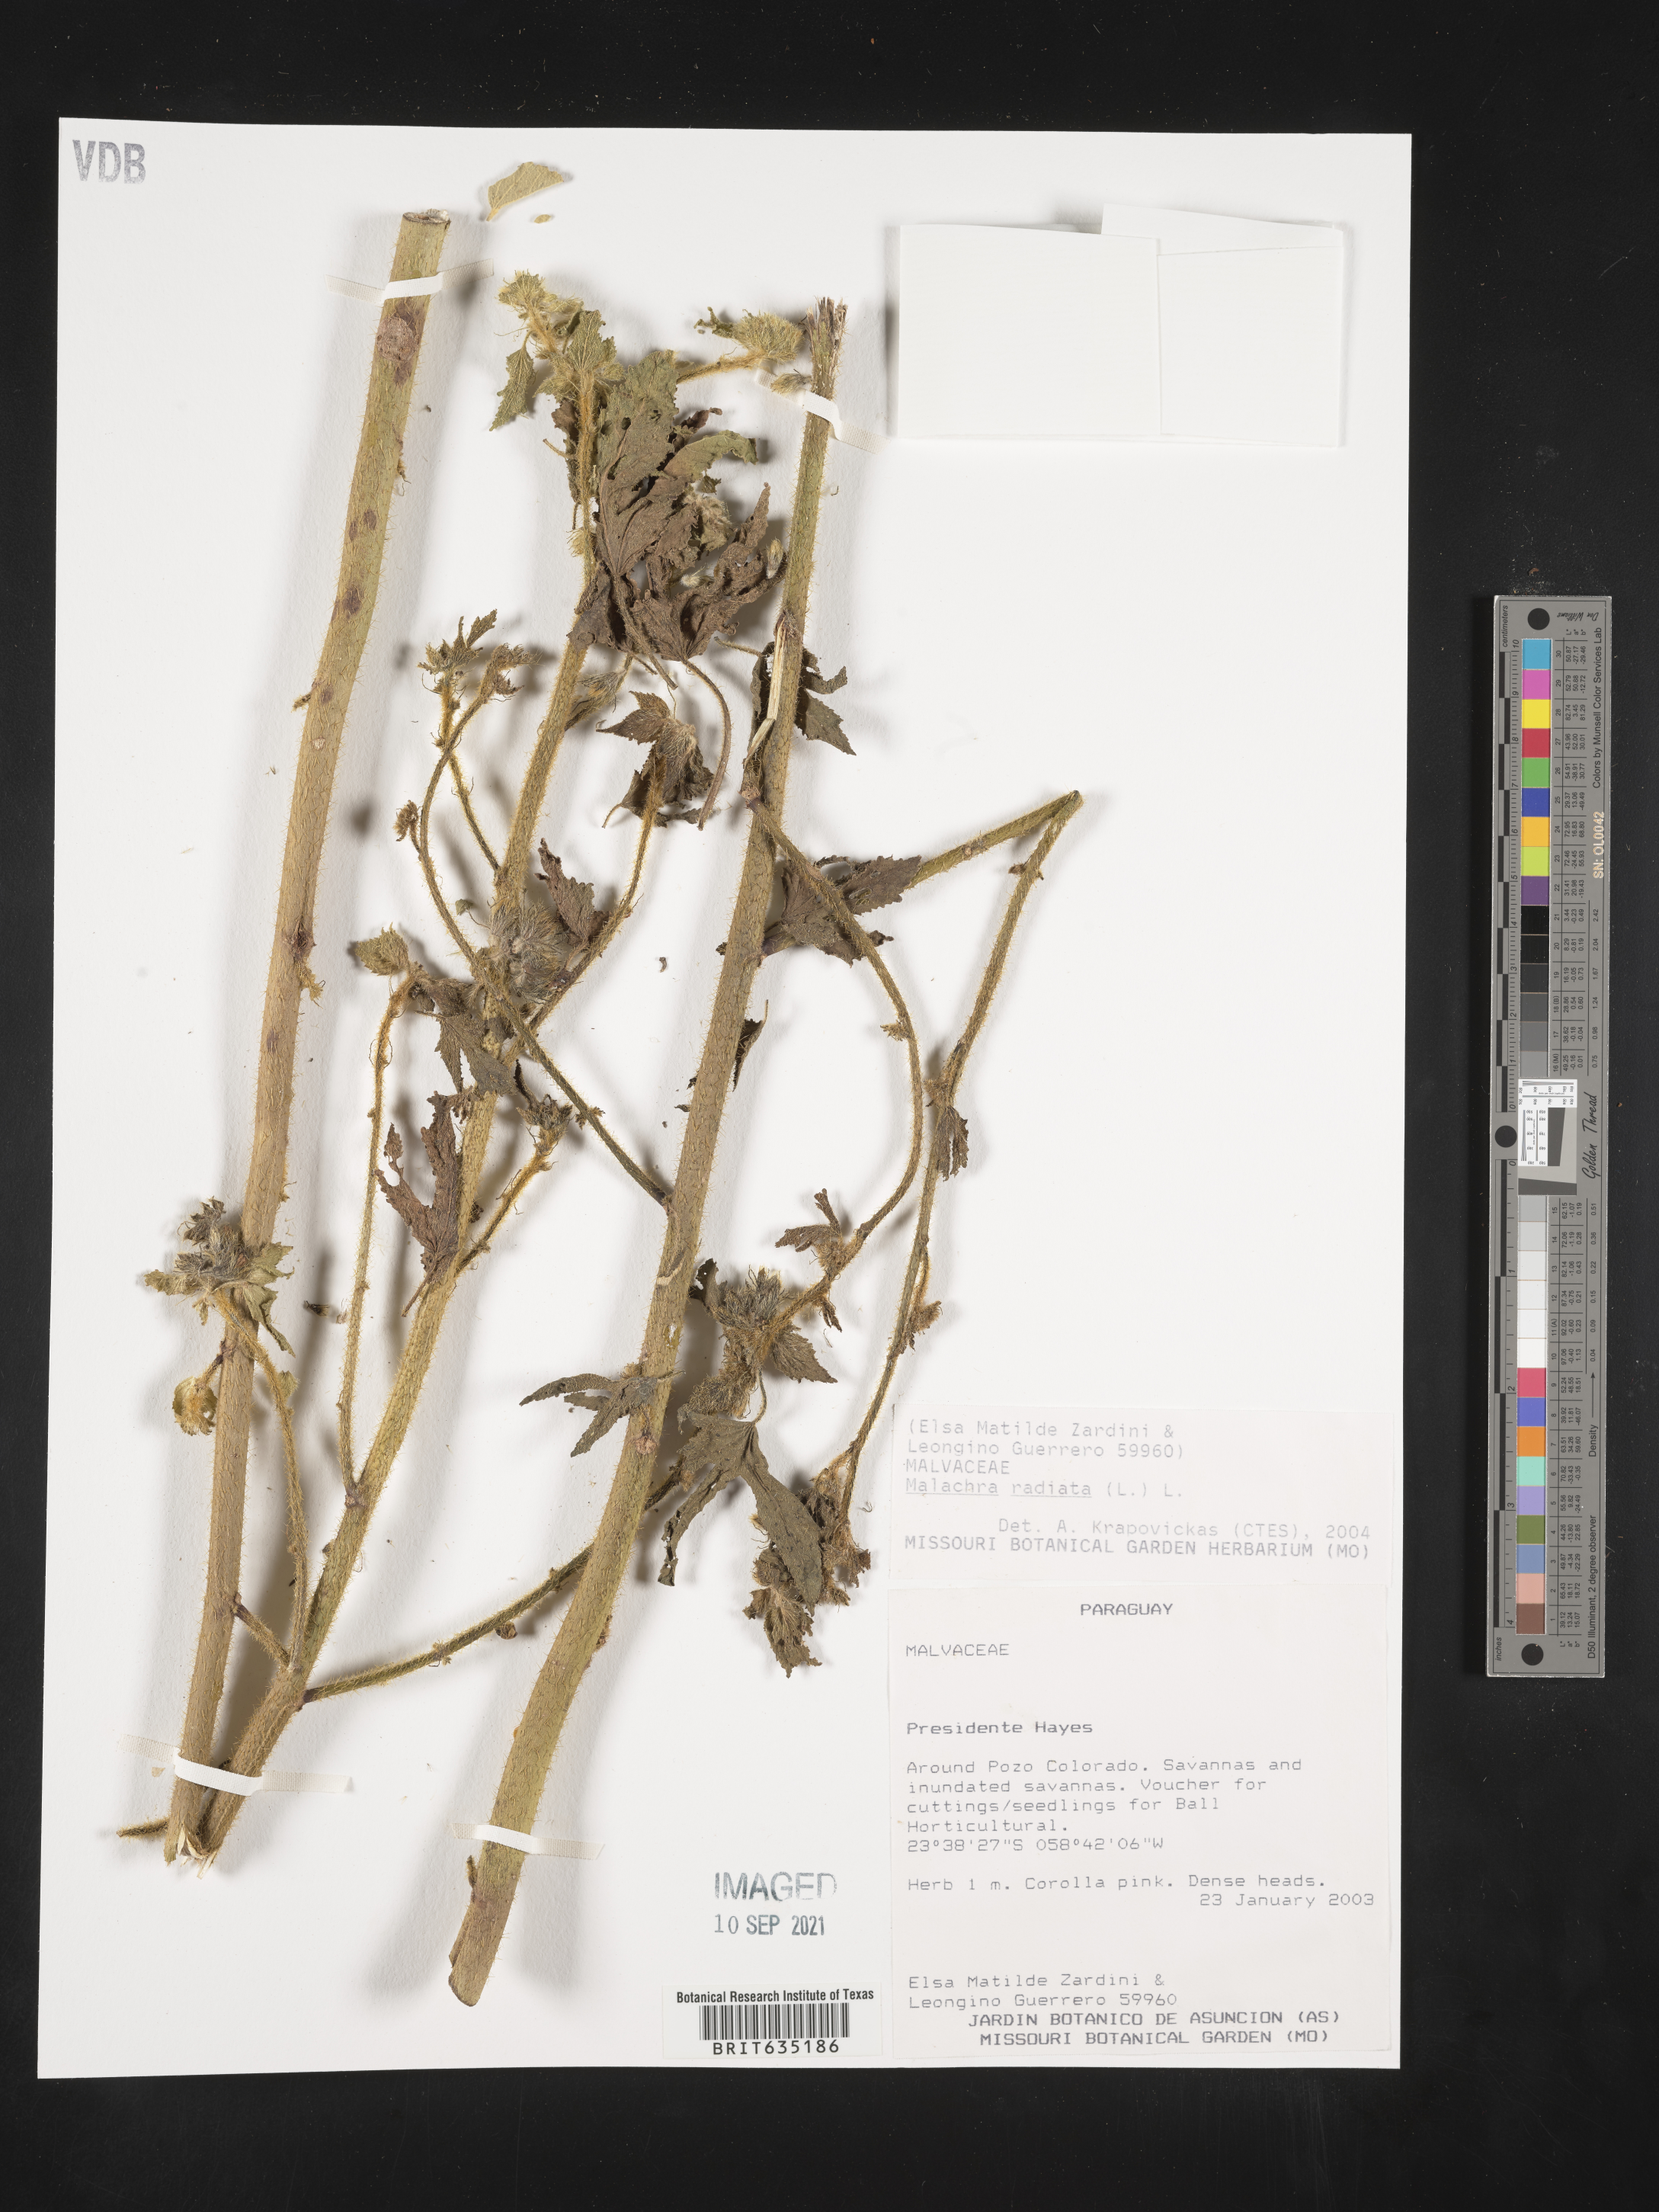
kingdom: Plantae
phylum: Tracheophyta
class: Magnoliopsida
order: Malvales
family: Malvaceae
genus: Malachra
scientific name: Malachra
